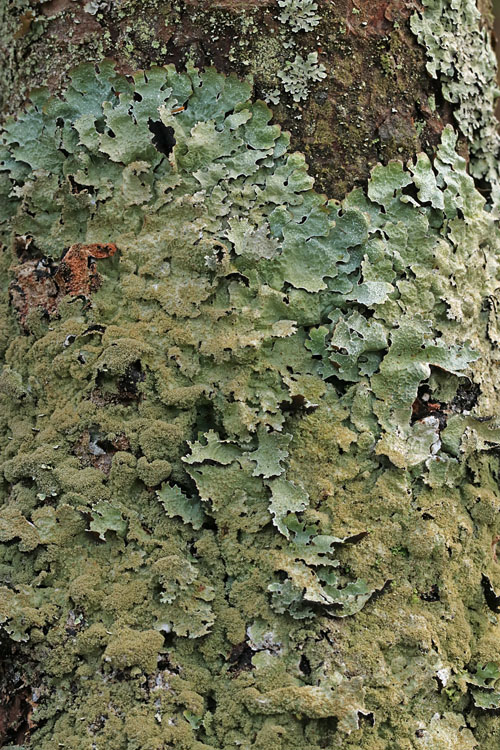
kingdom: Fungi
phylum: Ascomycota
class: Lecanoromycetes
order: Lecanorales
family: Parmeliaceae
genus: Parmelia
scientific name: Parmelia saxatilis
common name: farve-skållav
